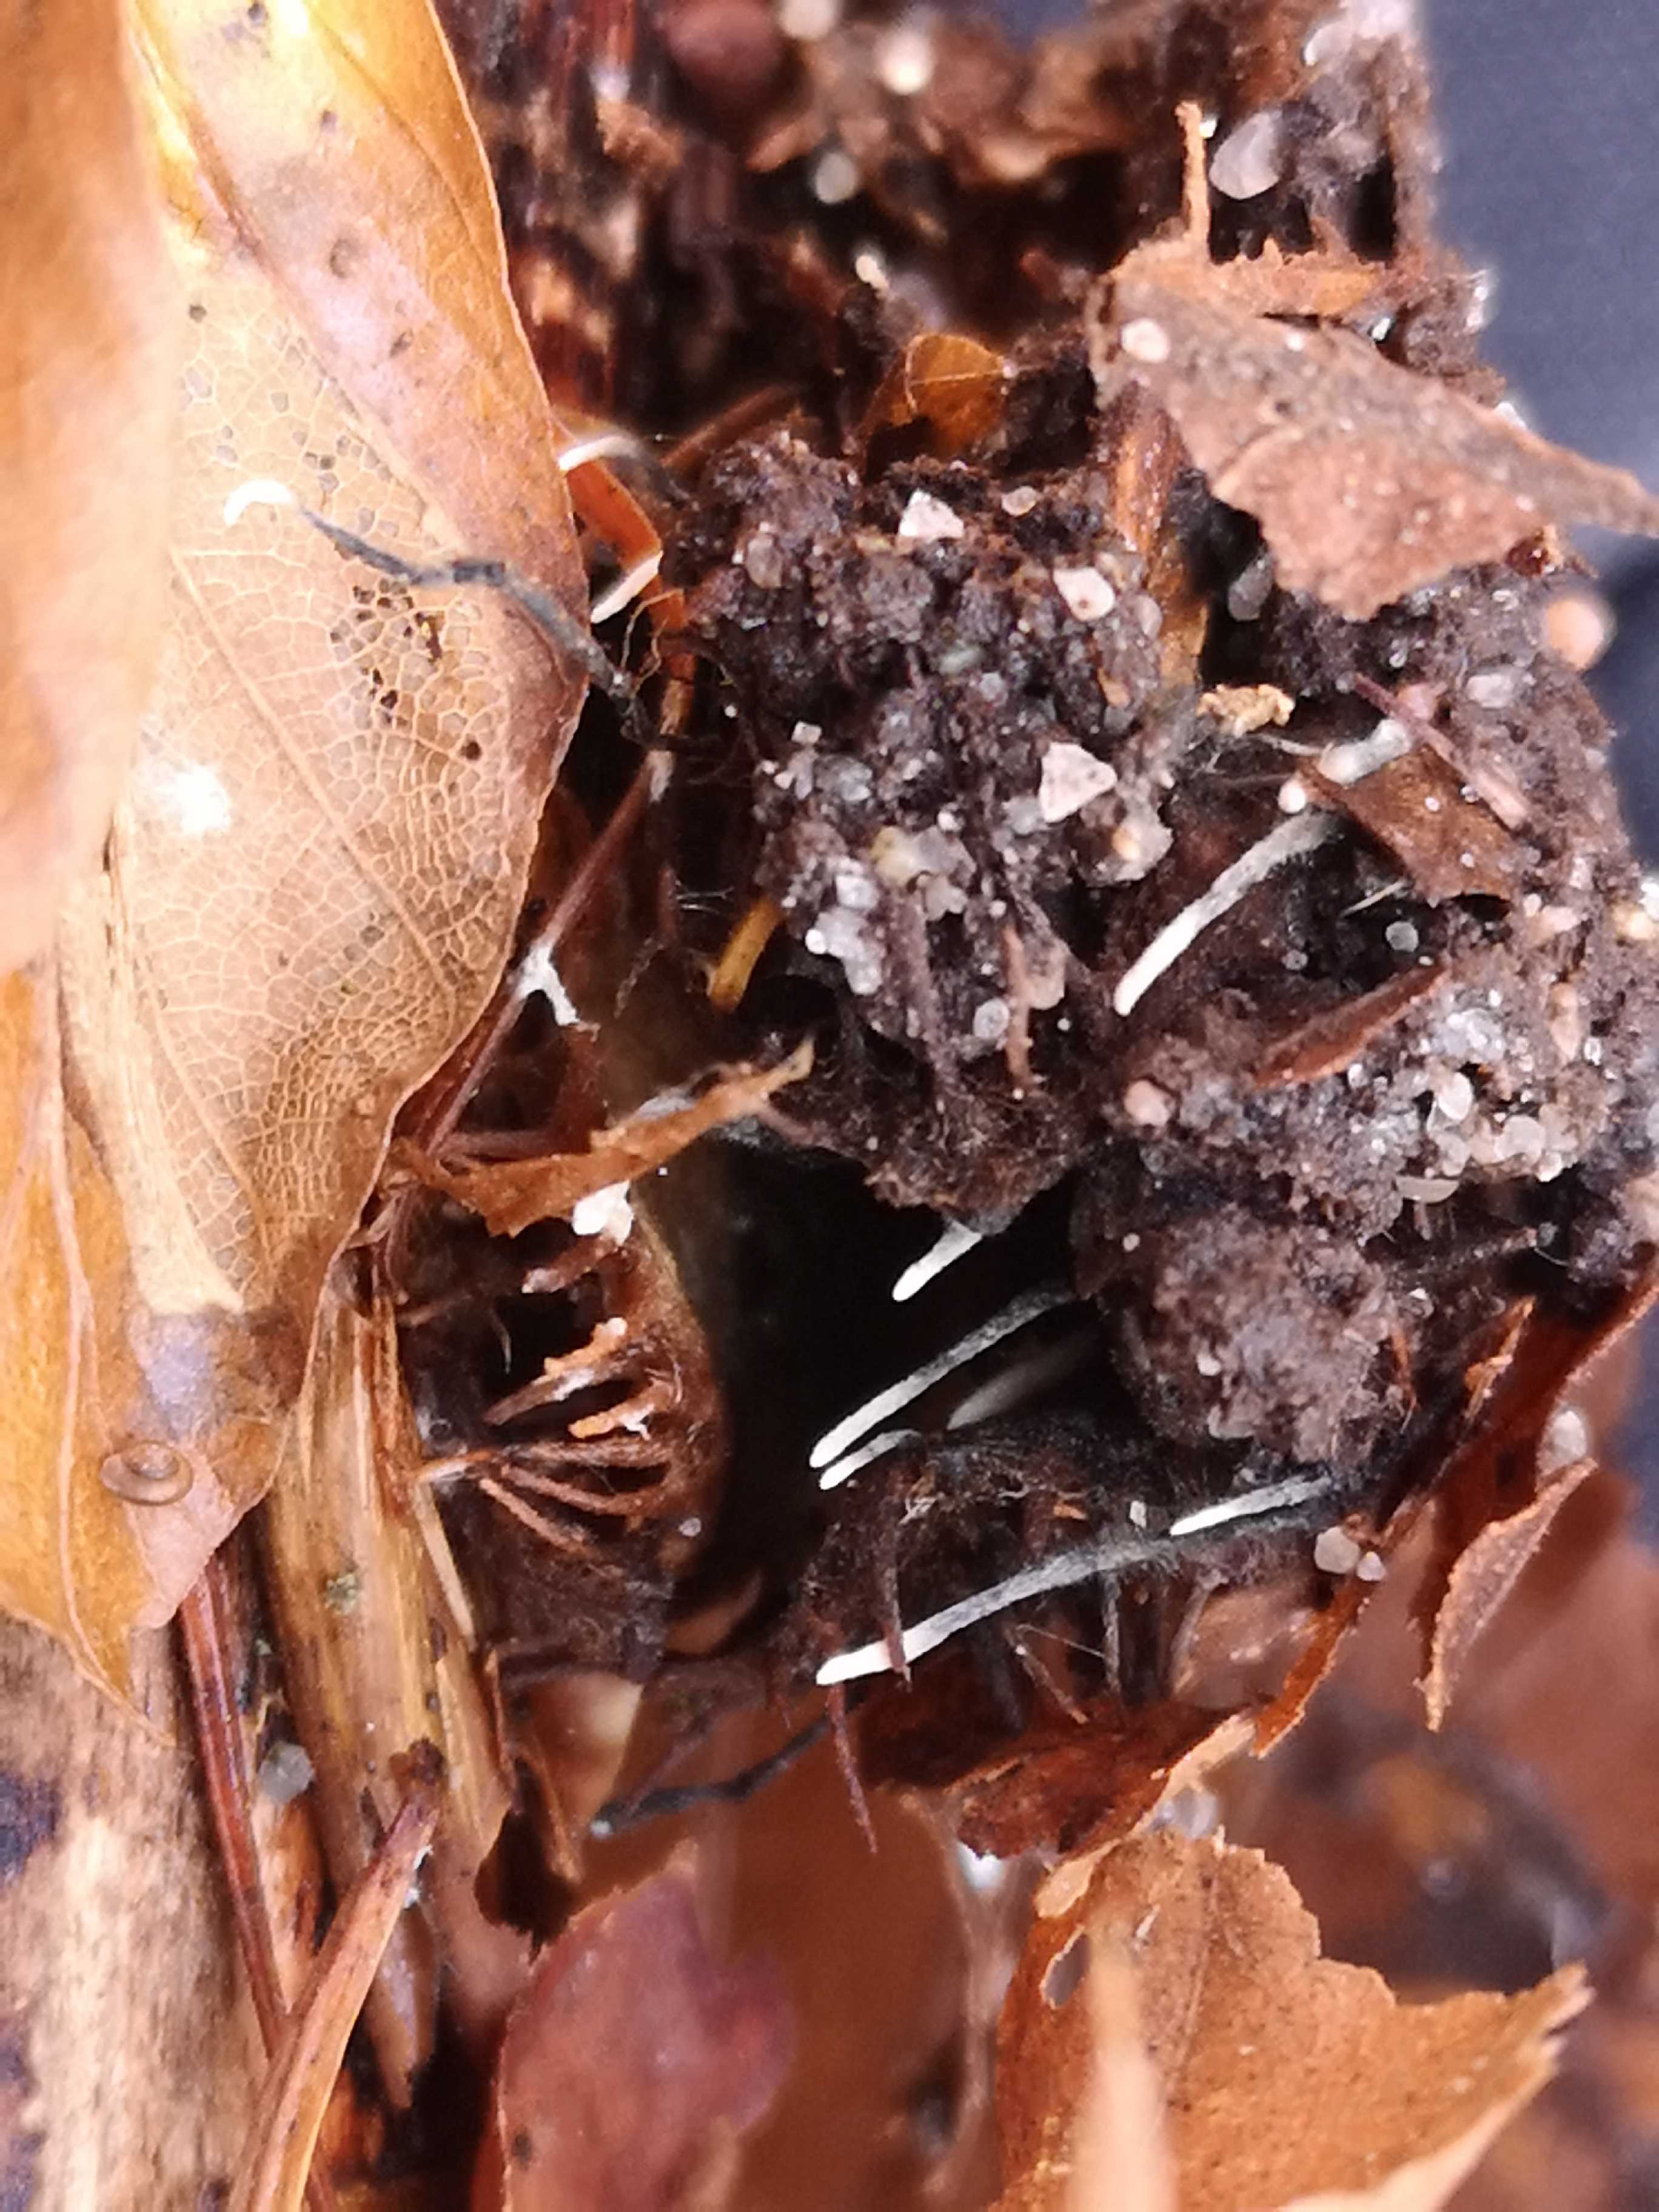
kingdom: Fungi
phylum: Ascomycota
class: Sordariomycetes
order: Xylariales
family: Xylariaceae
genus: Xylaria
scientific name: Xylaria carpophila
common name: bogskål-stødsvamp
